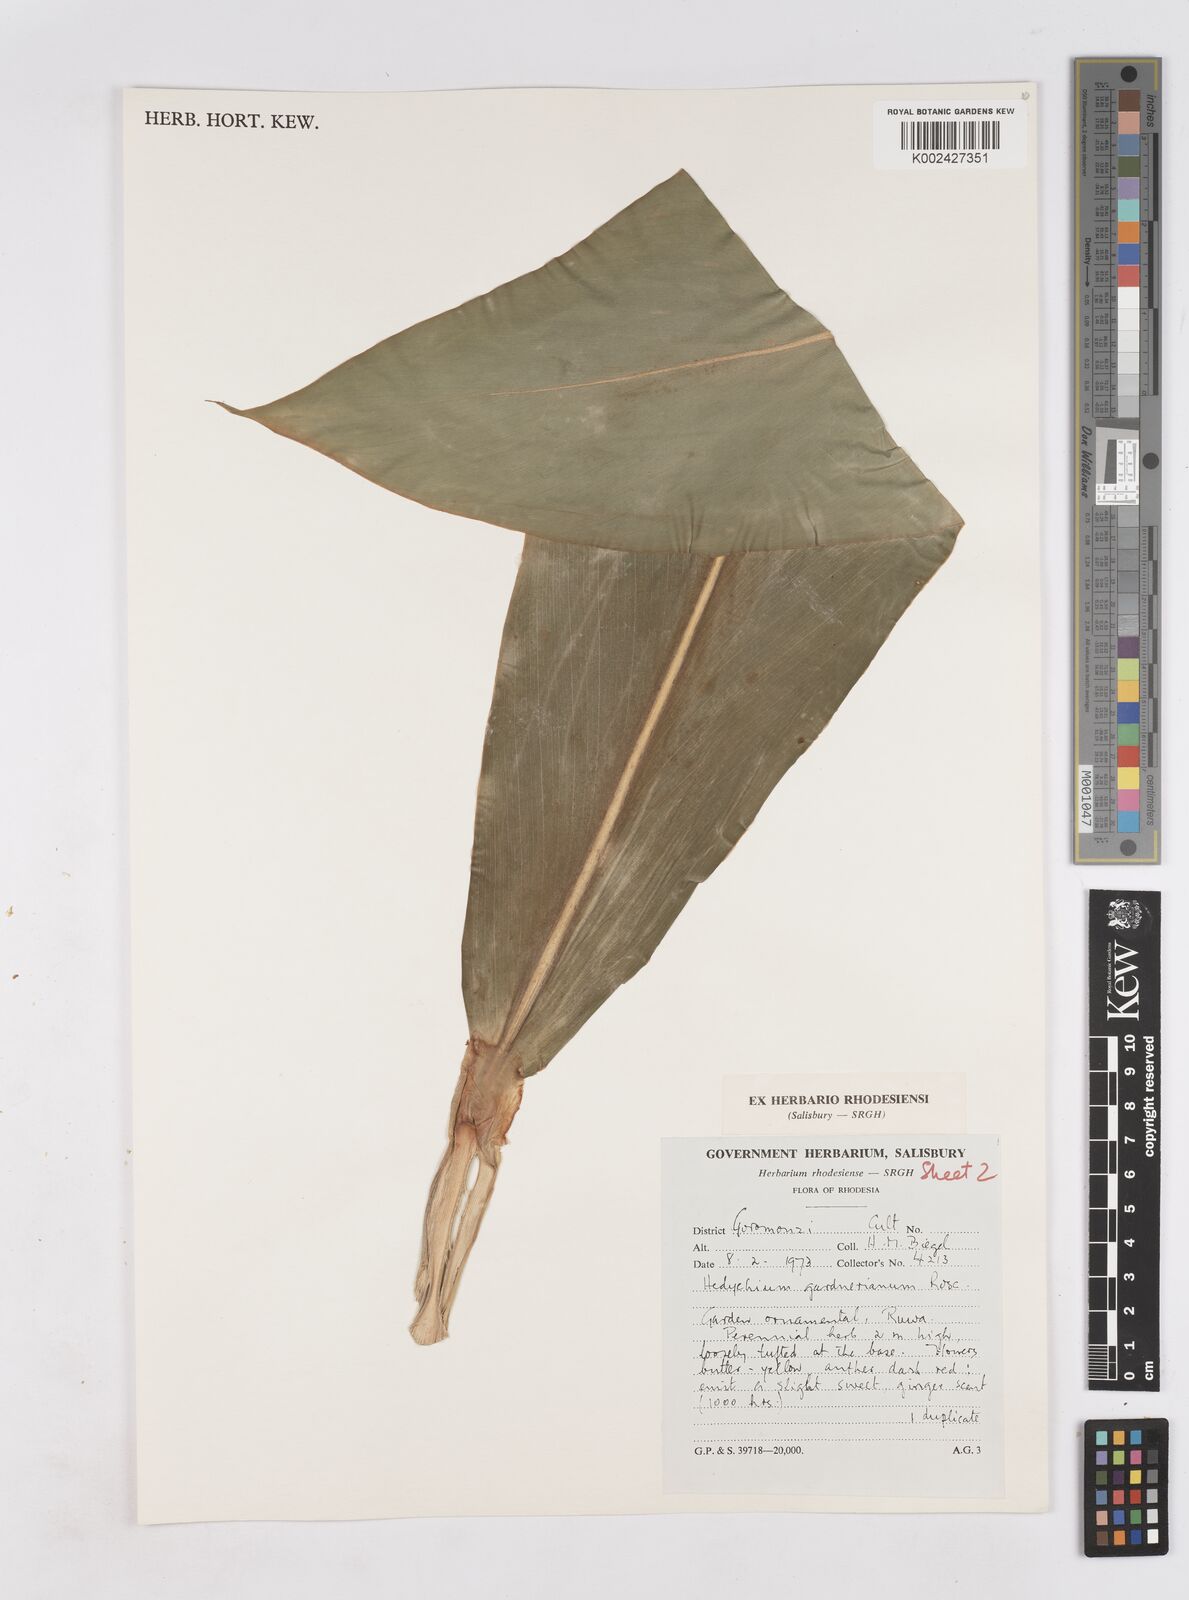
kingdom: Plantae
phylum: Tracheophyta
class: Liliopsida
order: Zingiberales
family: Zingiberaceae
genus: Hedychium
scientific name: Hedychium gardnerianum
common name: Himalayan ginger
